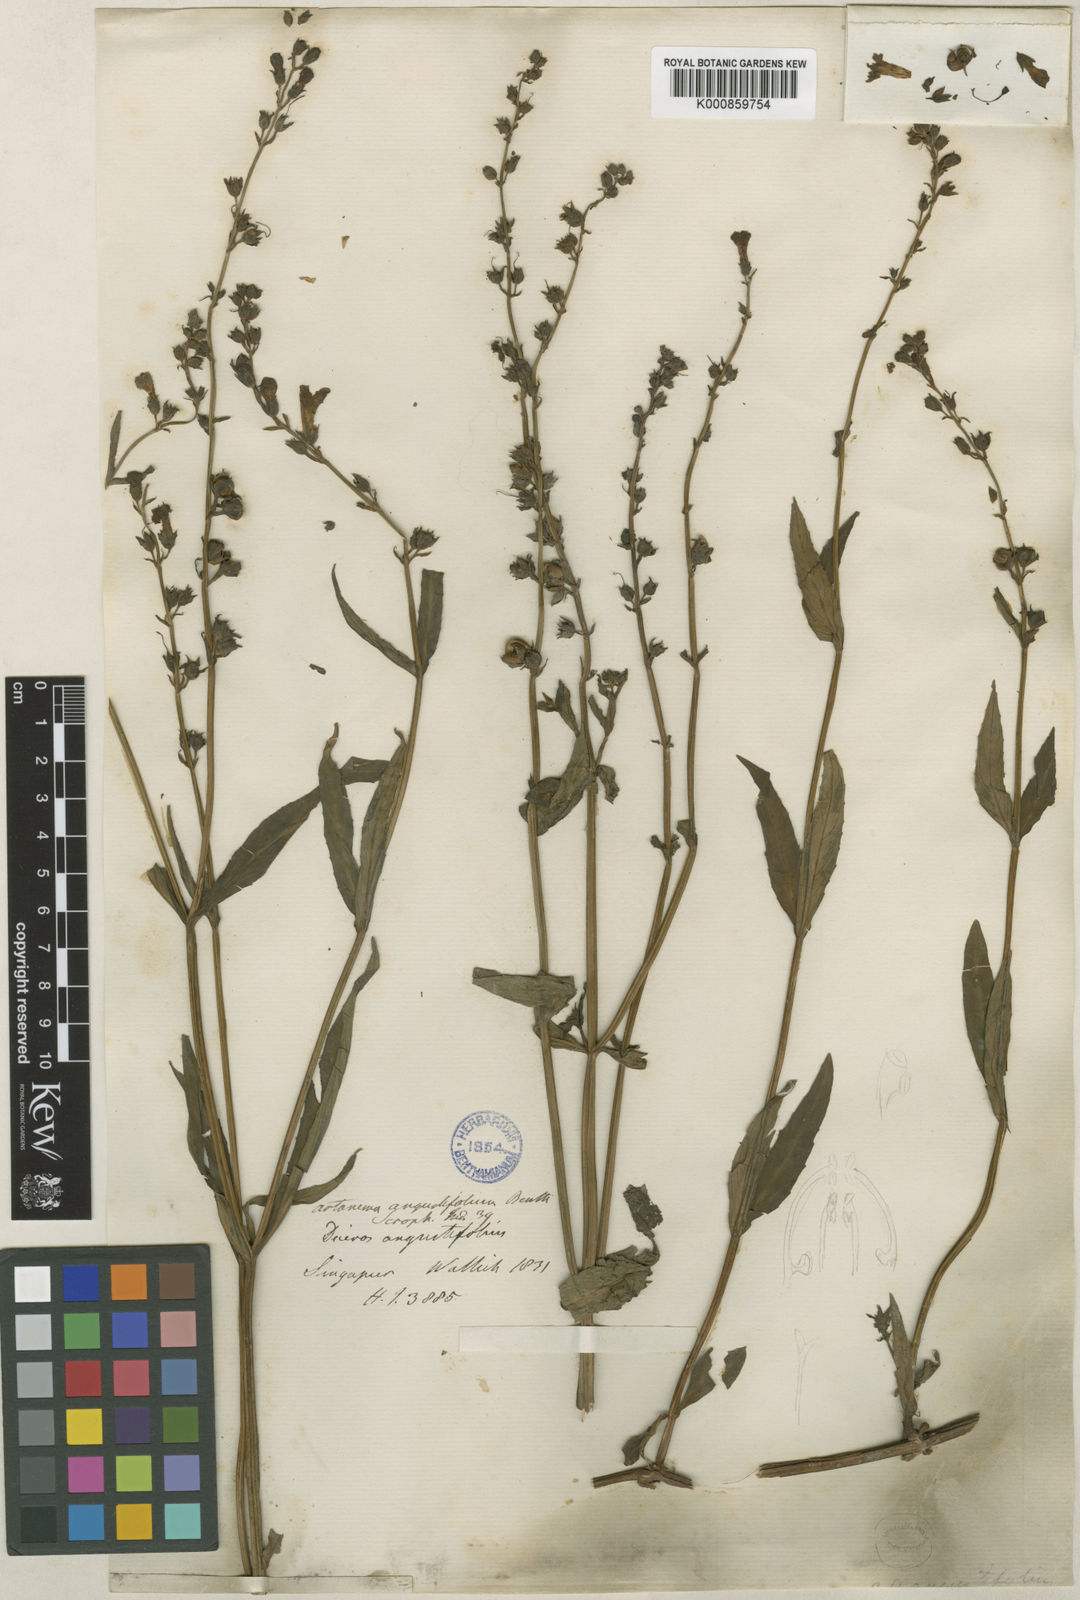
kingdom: Plantae
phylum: Tracheophyta
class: Magnoliopsida
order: Lamiales
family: Linderniaceae
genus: Artanema
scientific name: Artanema angustifolium
